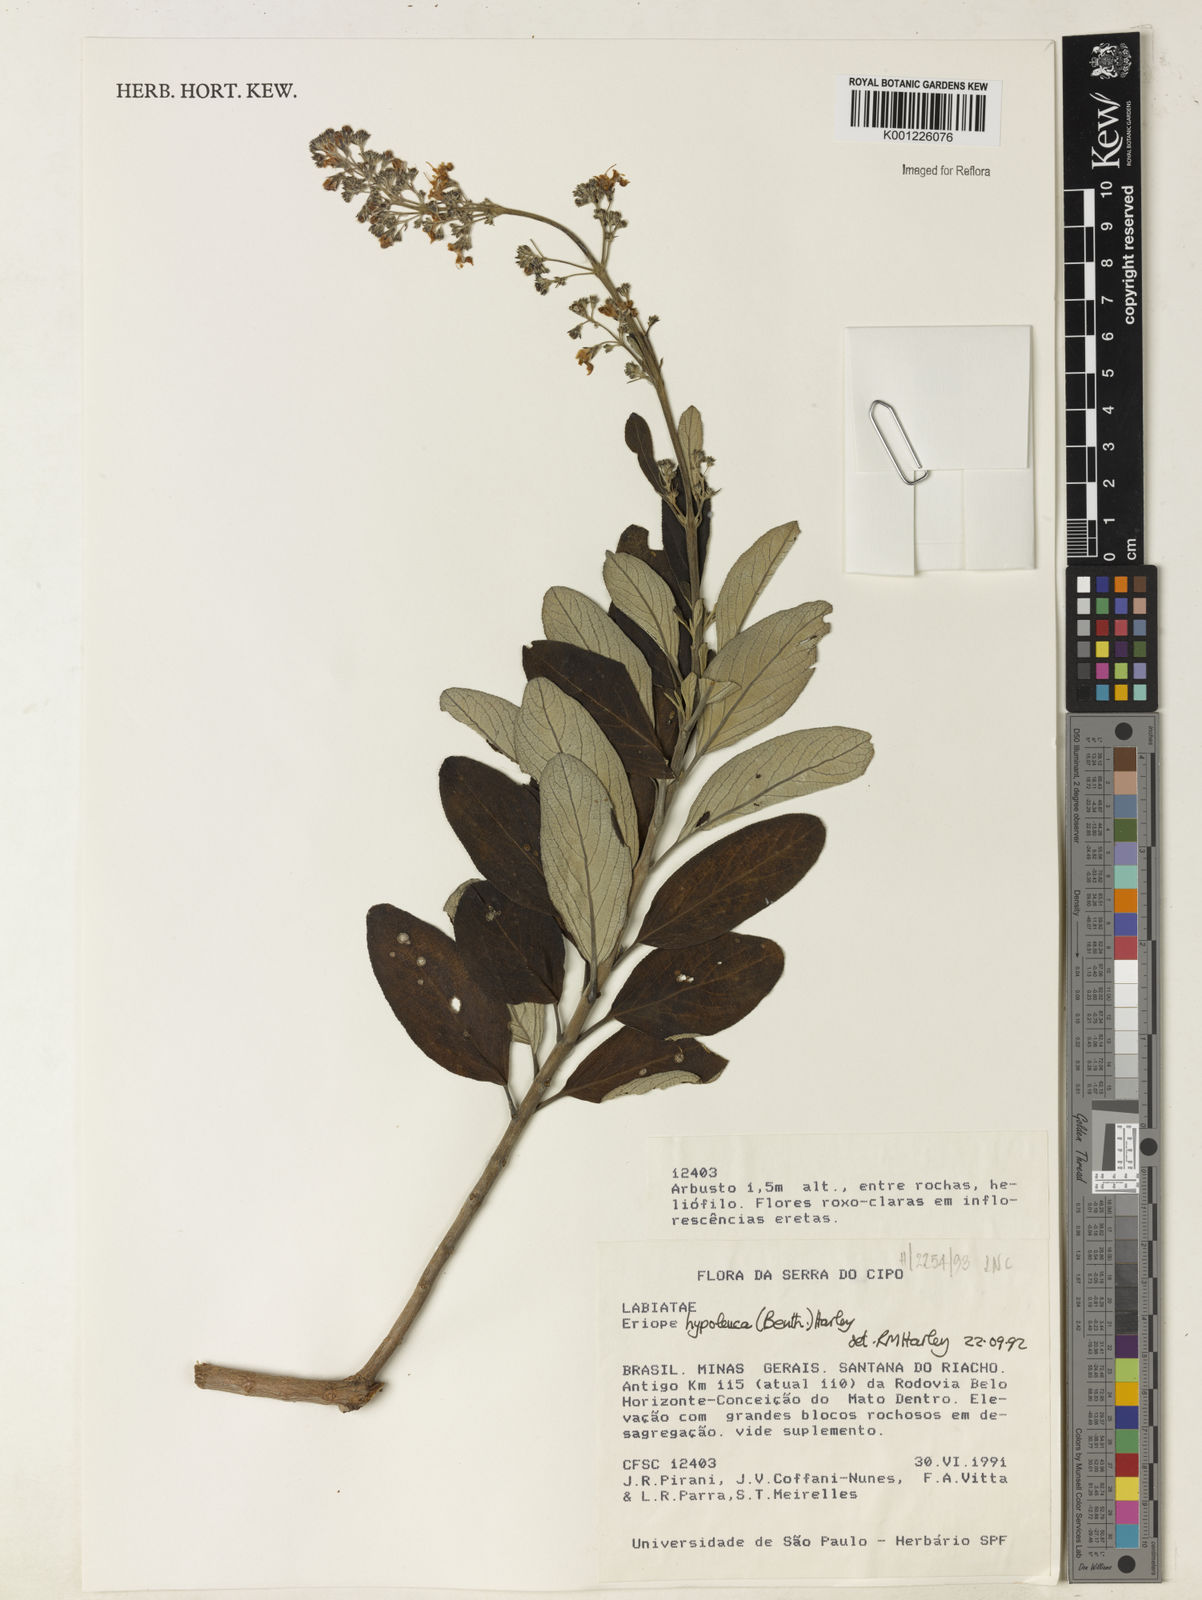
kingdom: Plantae
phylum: Tracheophyta
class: Magnoliopsida
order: Lamiales
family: Lamiaceae
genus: Eriope
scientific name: Eriope hypoleuca
